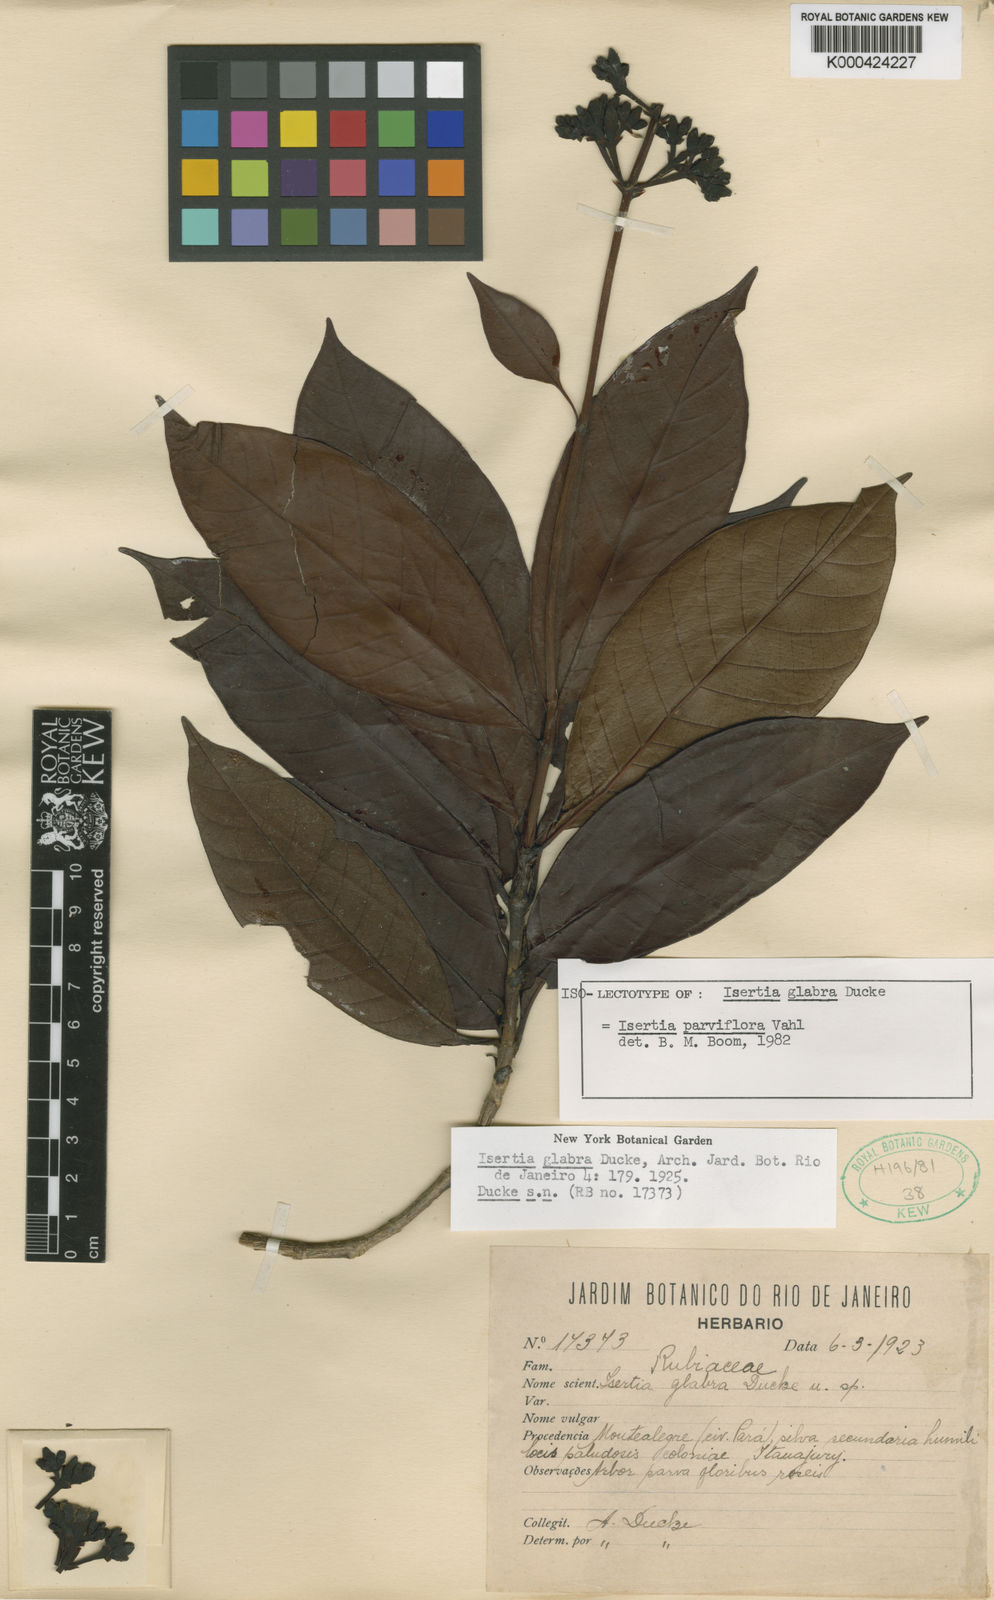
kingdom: Plantae
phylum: Tracheophyta
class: Magnoliopsida
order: Gentianales
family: Rubiaceae
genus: Isertia
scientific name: Isertia parviflora
